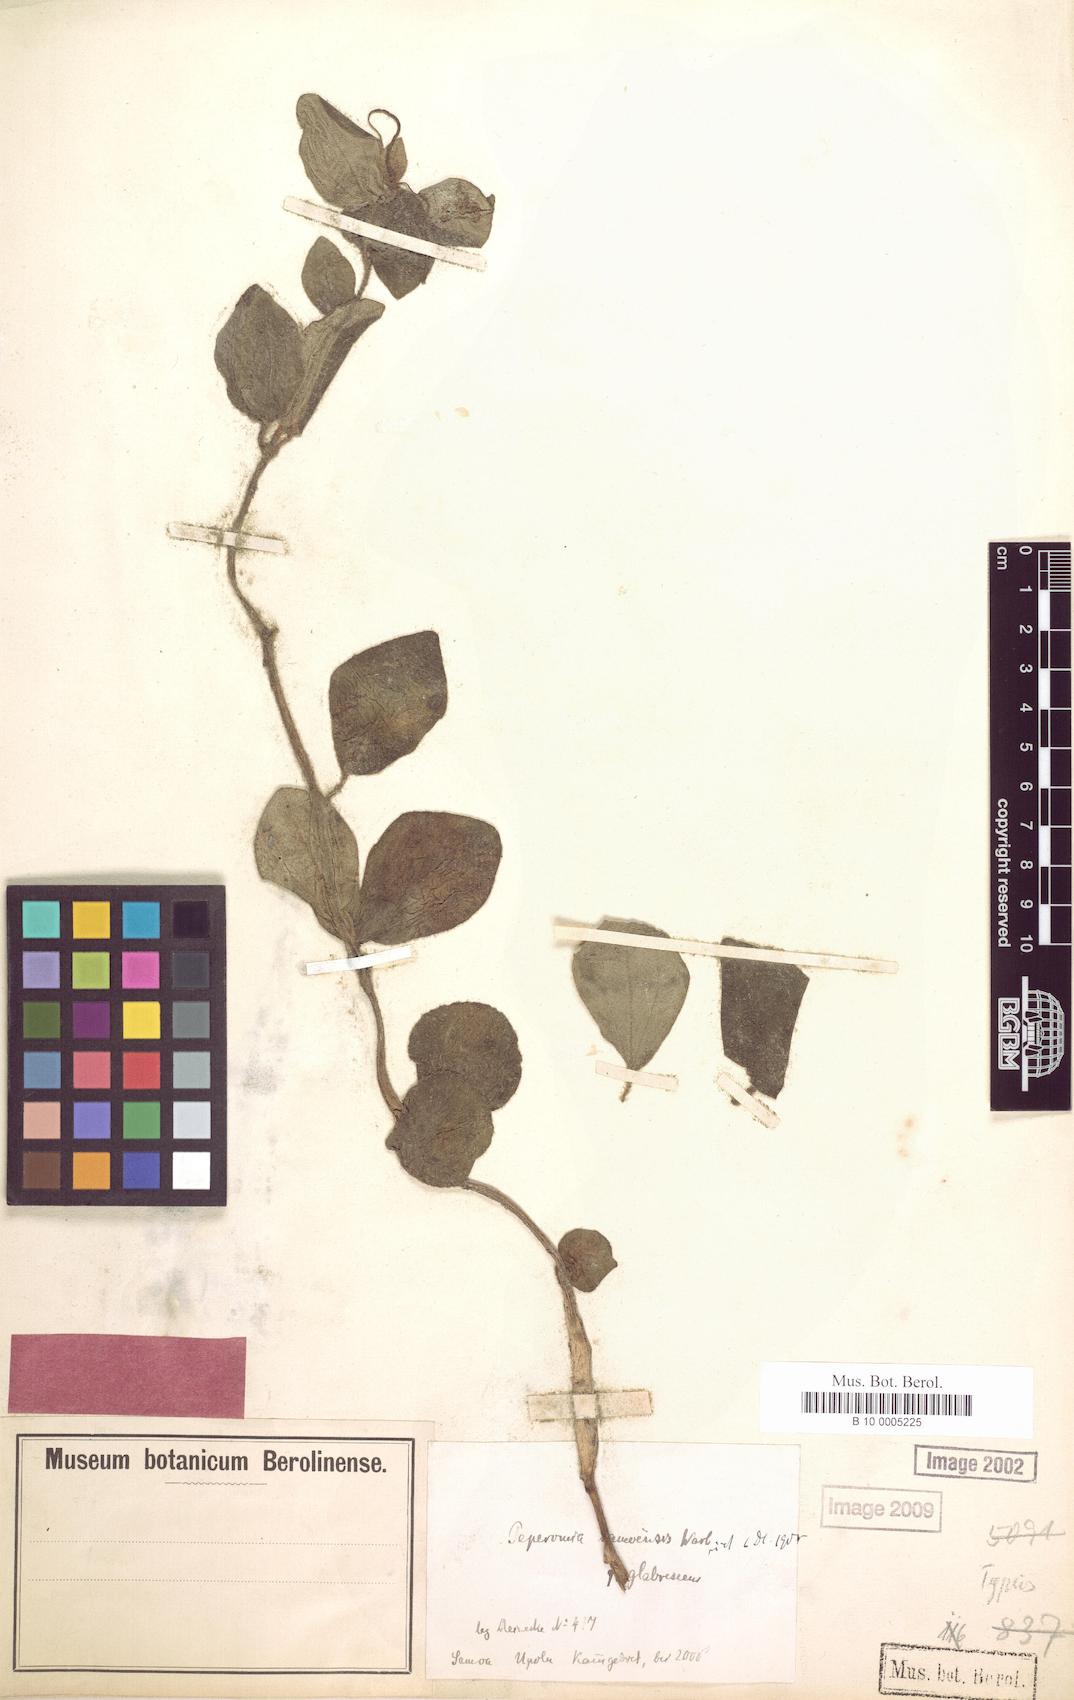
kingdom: Plantae
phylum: Tracheophyta
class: Magnoliopsida
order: Piperales
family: Piperaceae
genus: Peperomia
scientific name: Peperomia samoensis
